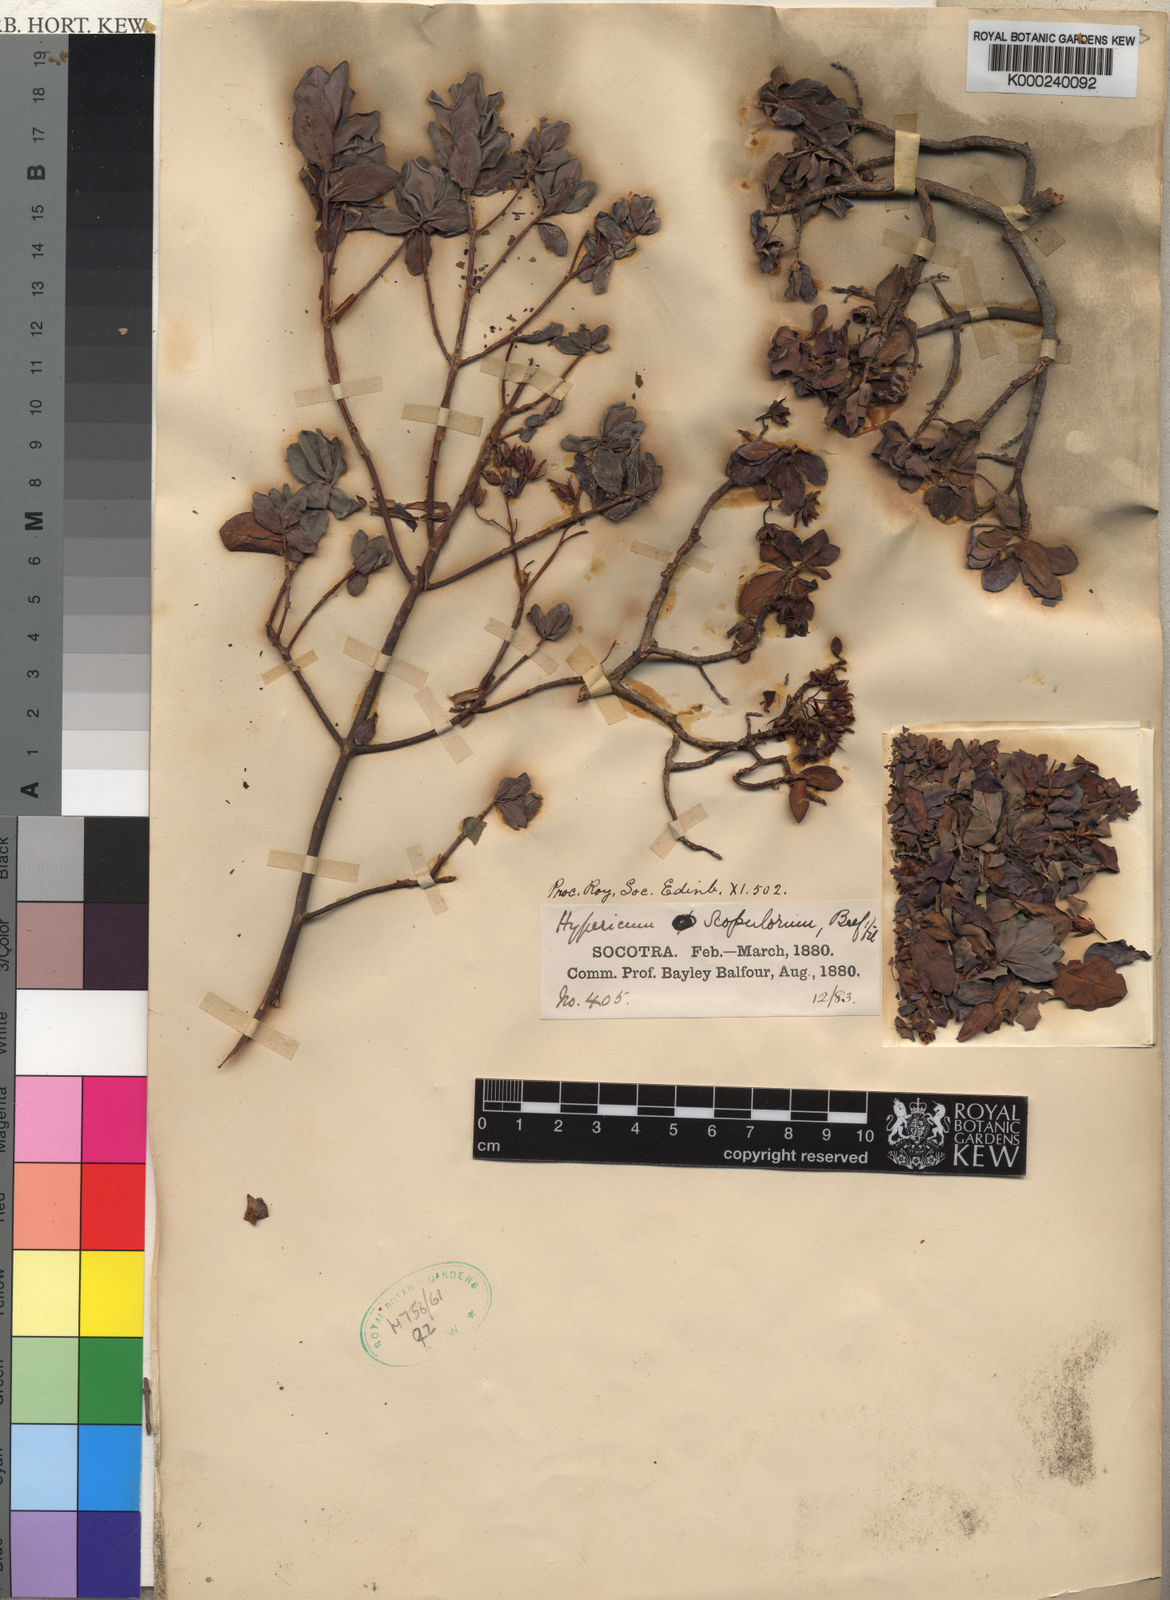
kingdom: Plantae
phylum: Tracheophyta
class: Magnoliopsida
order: Malpighiales
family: Hypericaceae
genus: Hypericum
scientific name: Hypericum scopulorum
